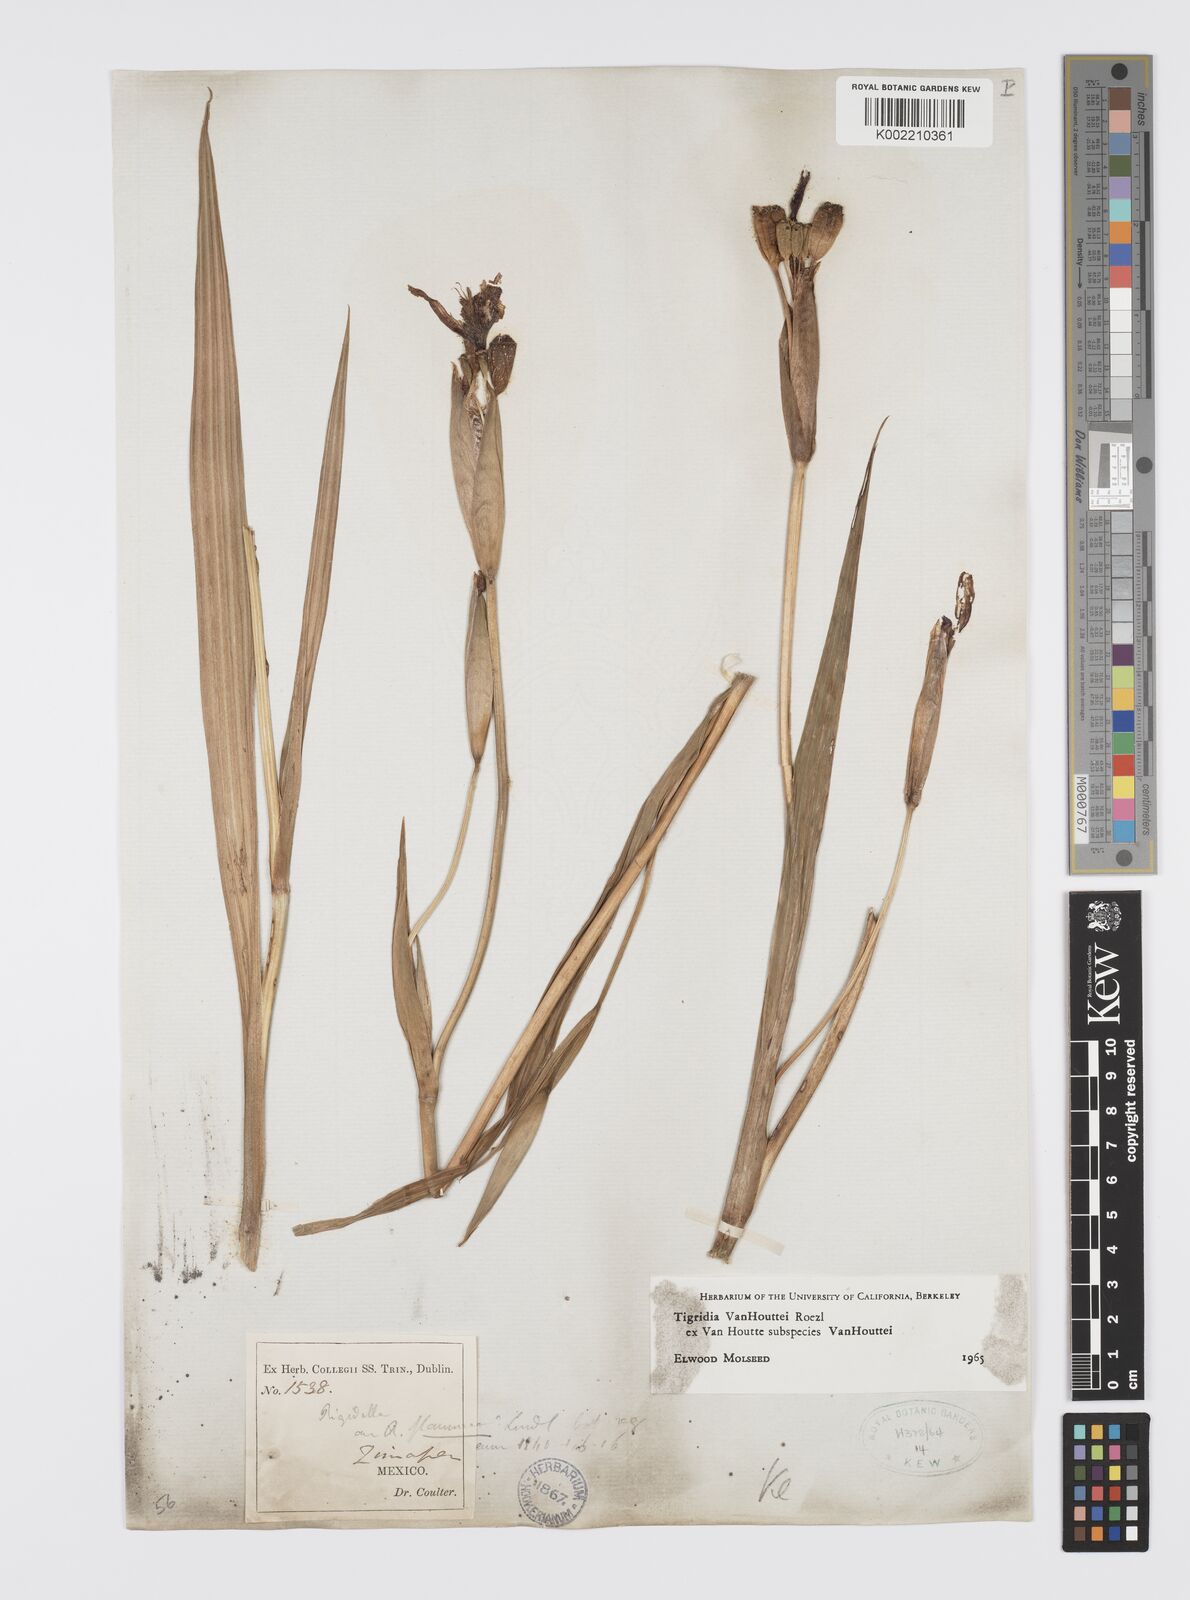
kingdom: Plantae
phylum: Tracheophyta
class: Liliopsida
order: Asparagales
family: Iridaceae
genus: Tigridia
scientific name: Tigridia vanhouttei
